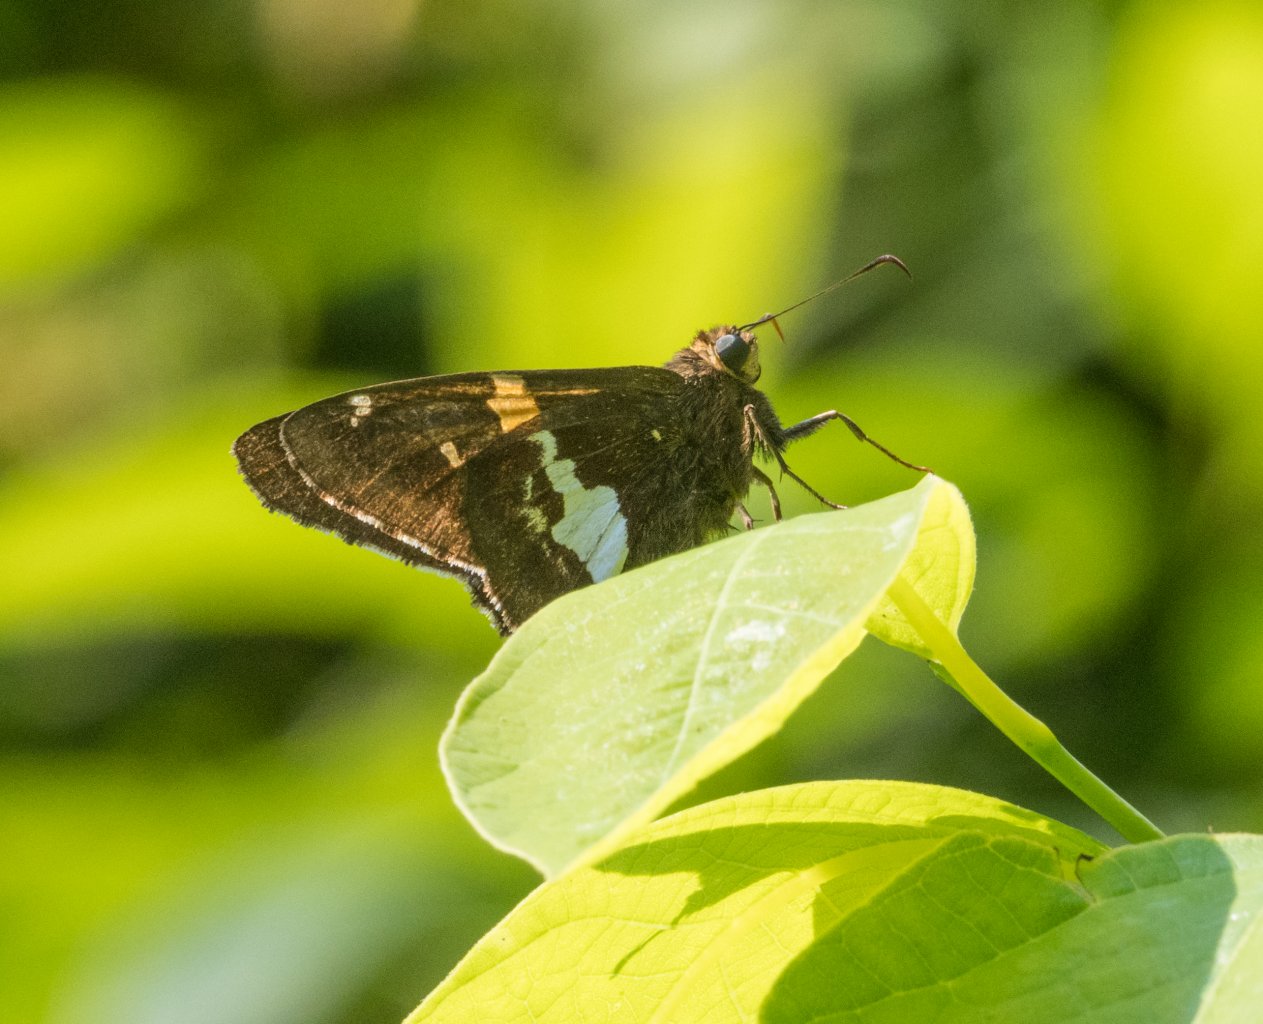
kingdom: Animalia
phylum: Arthropoda
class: Insecta
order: Lepidoptera
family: Hesperiidae
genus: Epargyreus
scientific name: Epargyreus clarus
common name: Silver-spotted Skipper
